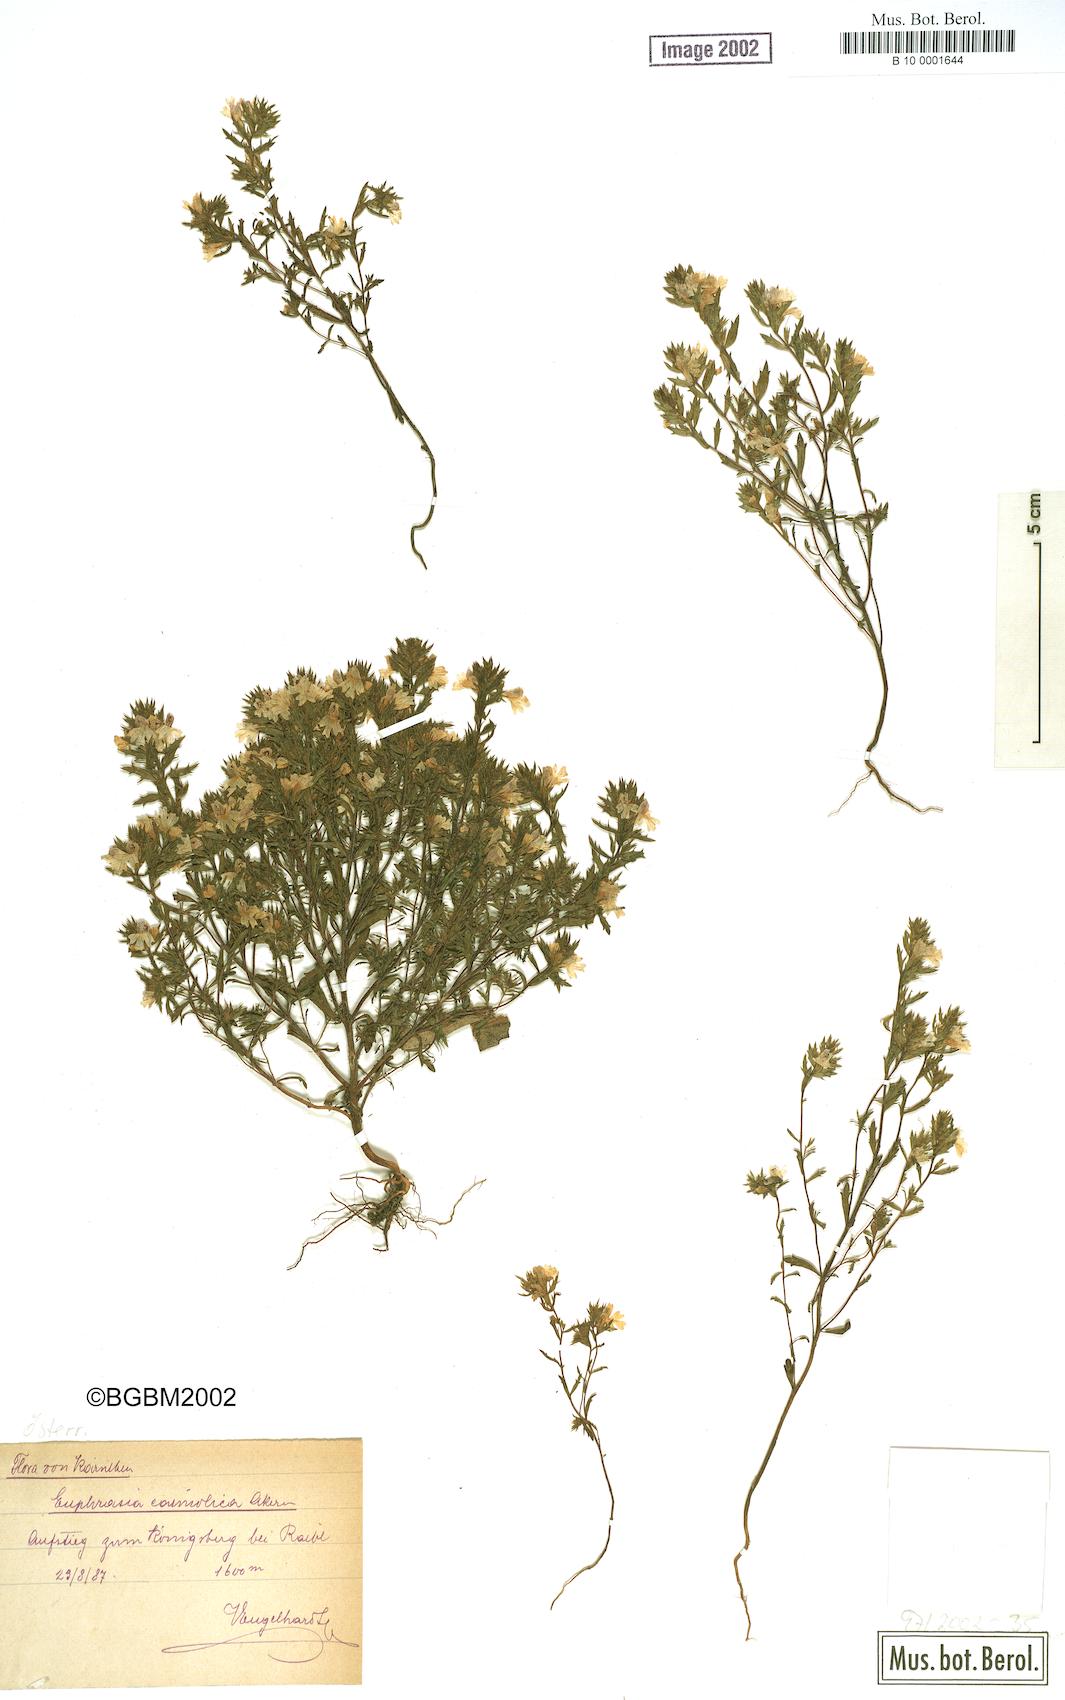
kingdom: Plantae
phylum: Tracheophyta
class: Magnoliopsida
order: Lamiales
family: Orobanchaceae
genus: Euphrasia
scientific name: Euphrasia officinalis
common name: Eyebright
